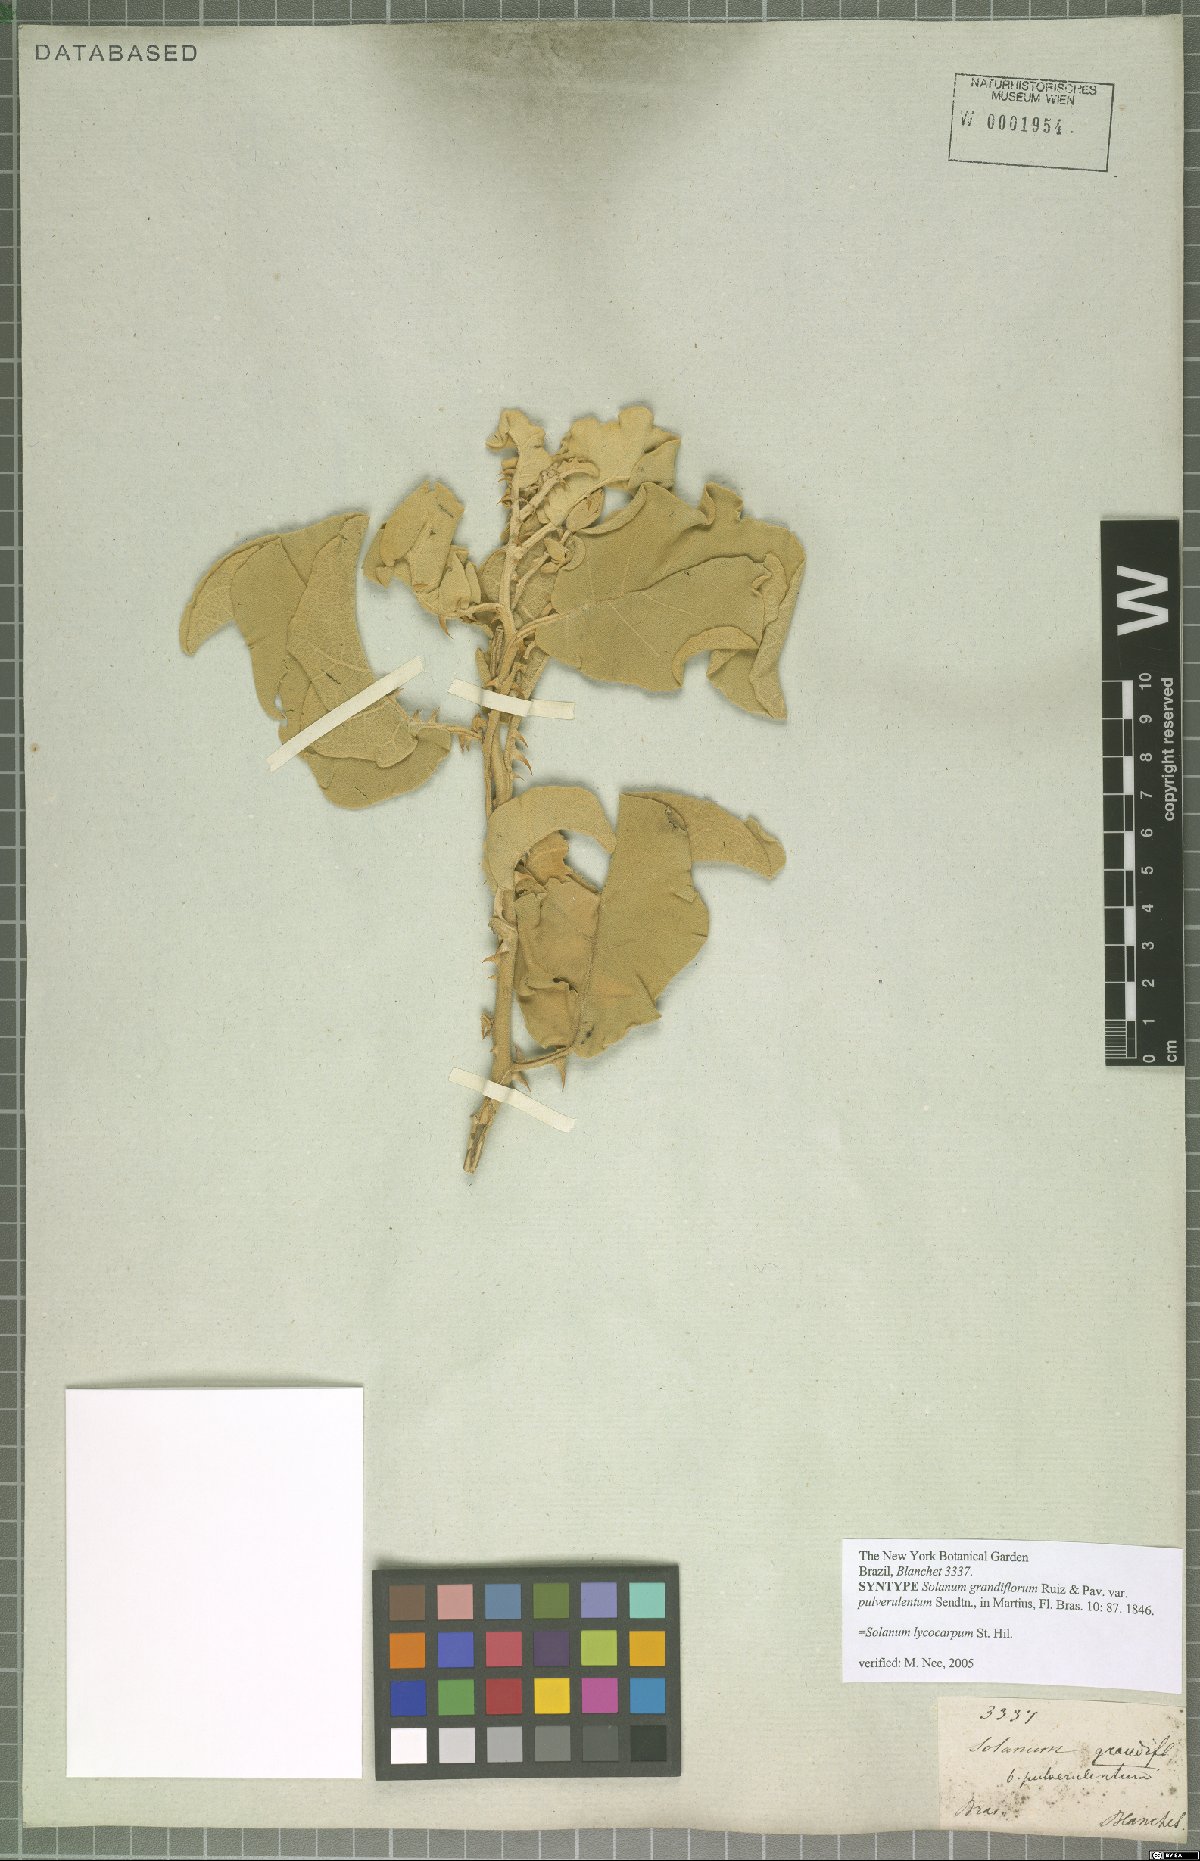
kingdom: Plantae
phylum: Tracheophyta
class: Magnoliopsida
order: Solanales
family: Solanaceae
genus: Solanum
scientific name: Solanum lycocarpum
